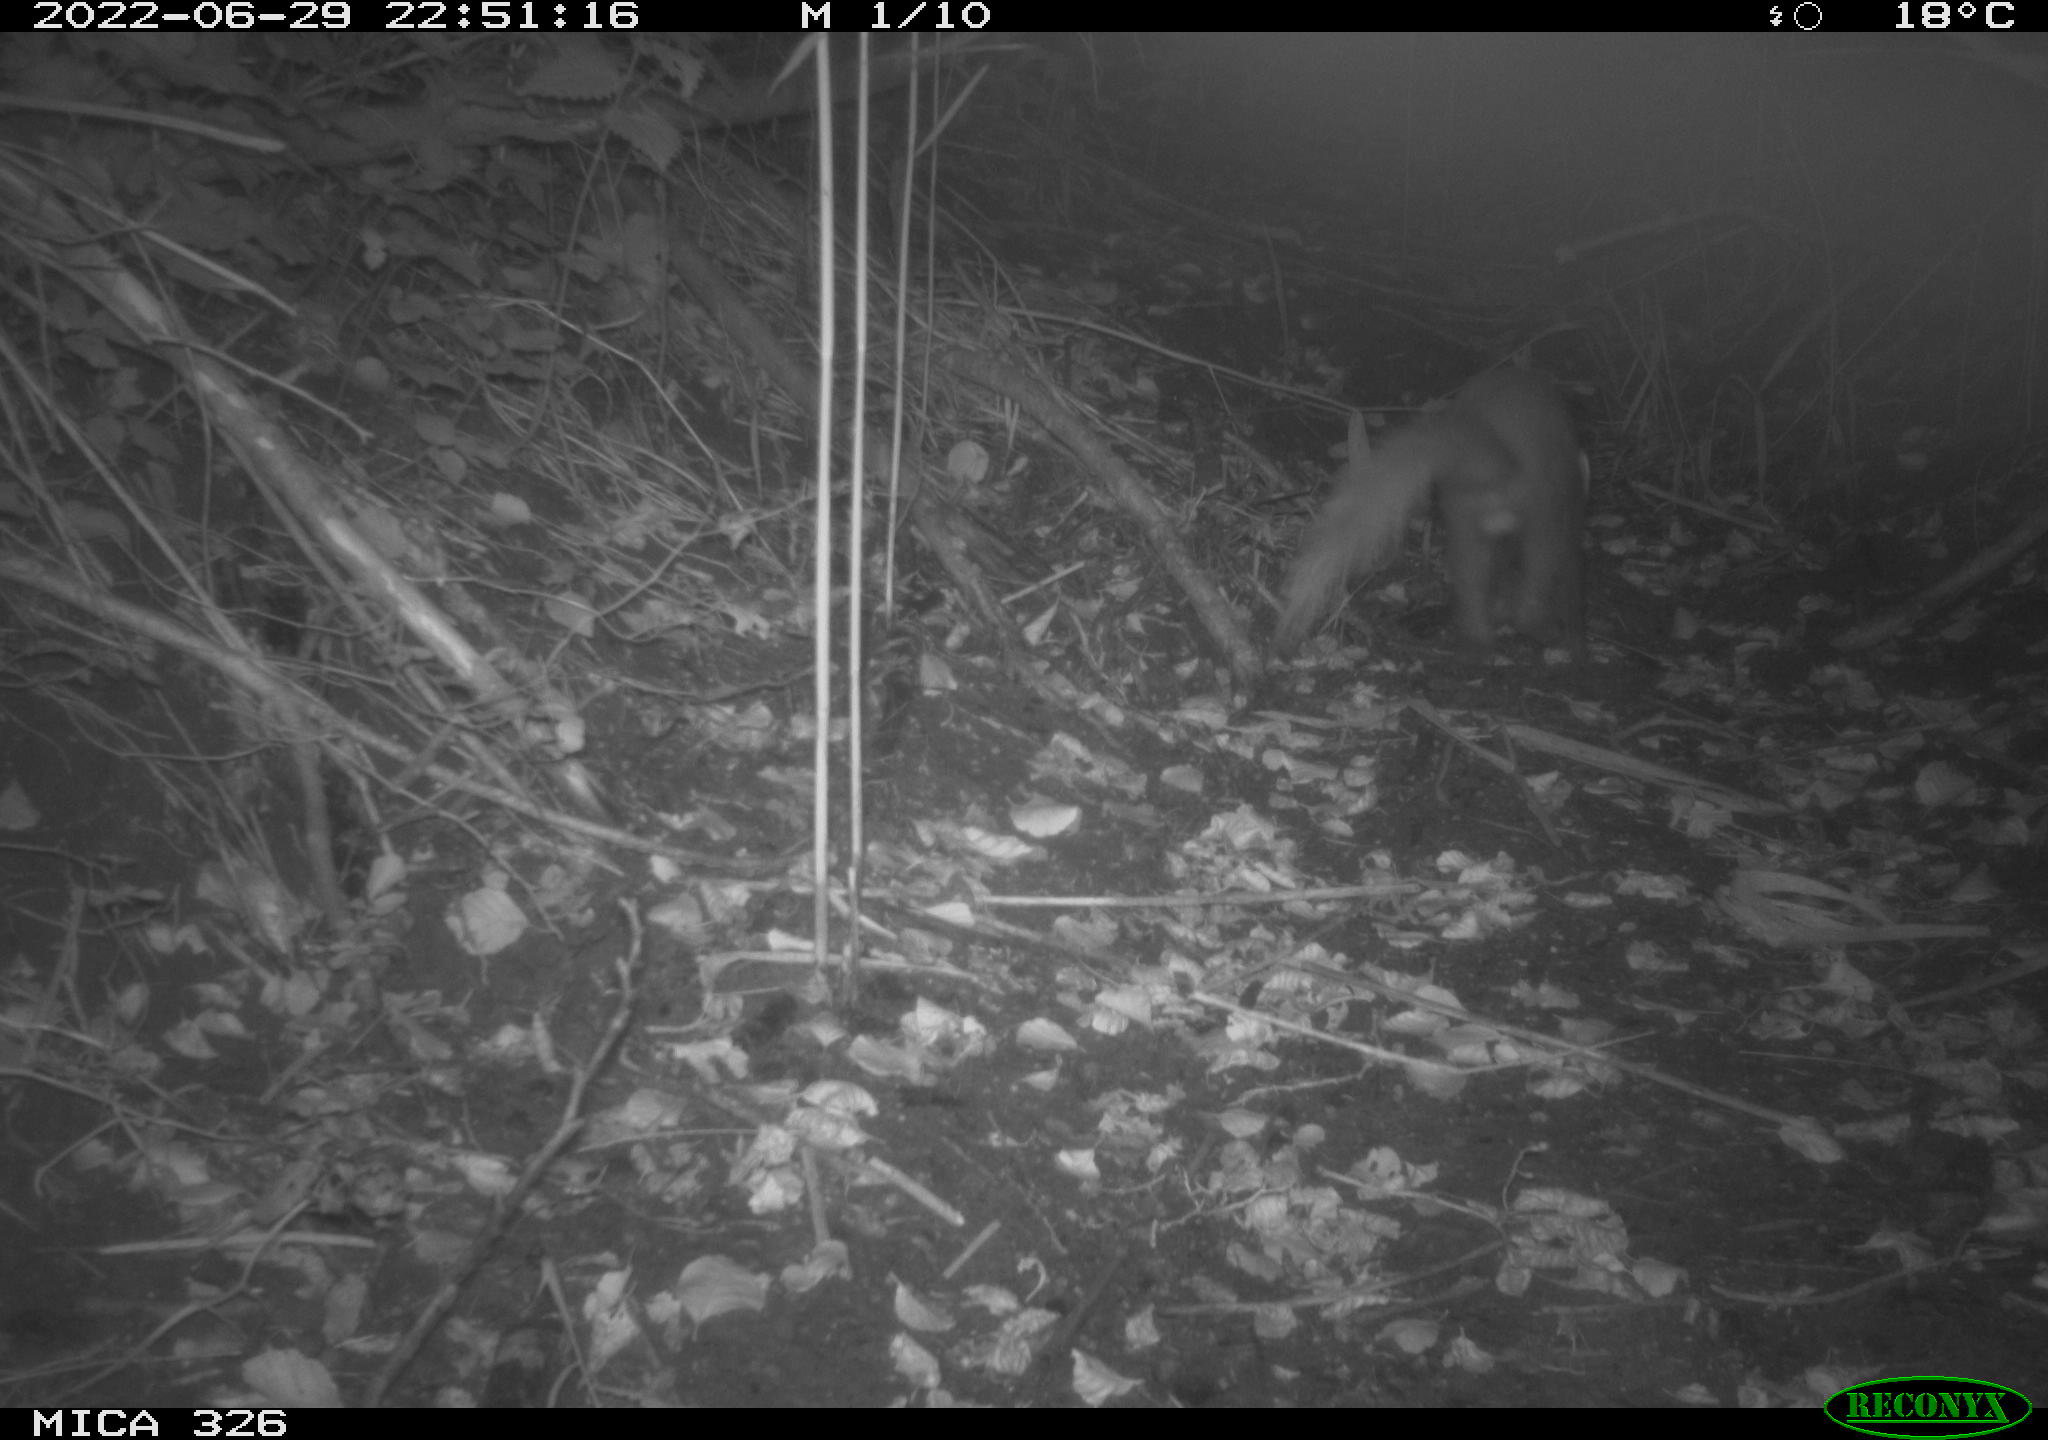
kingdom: Animalia
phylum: Chordata
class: Mammalia
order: Carnivora
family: Mustelidae
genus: Martes
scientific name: Martes martes
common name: European pine marten
